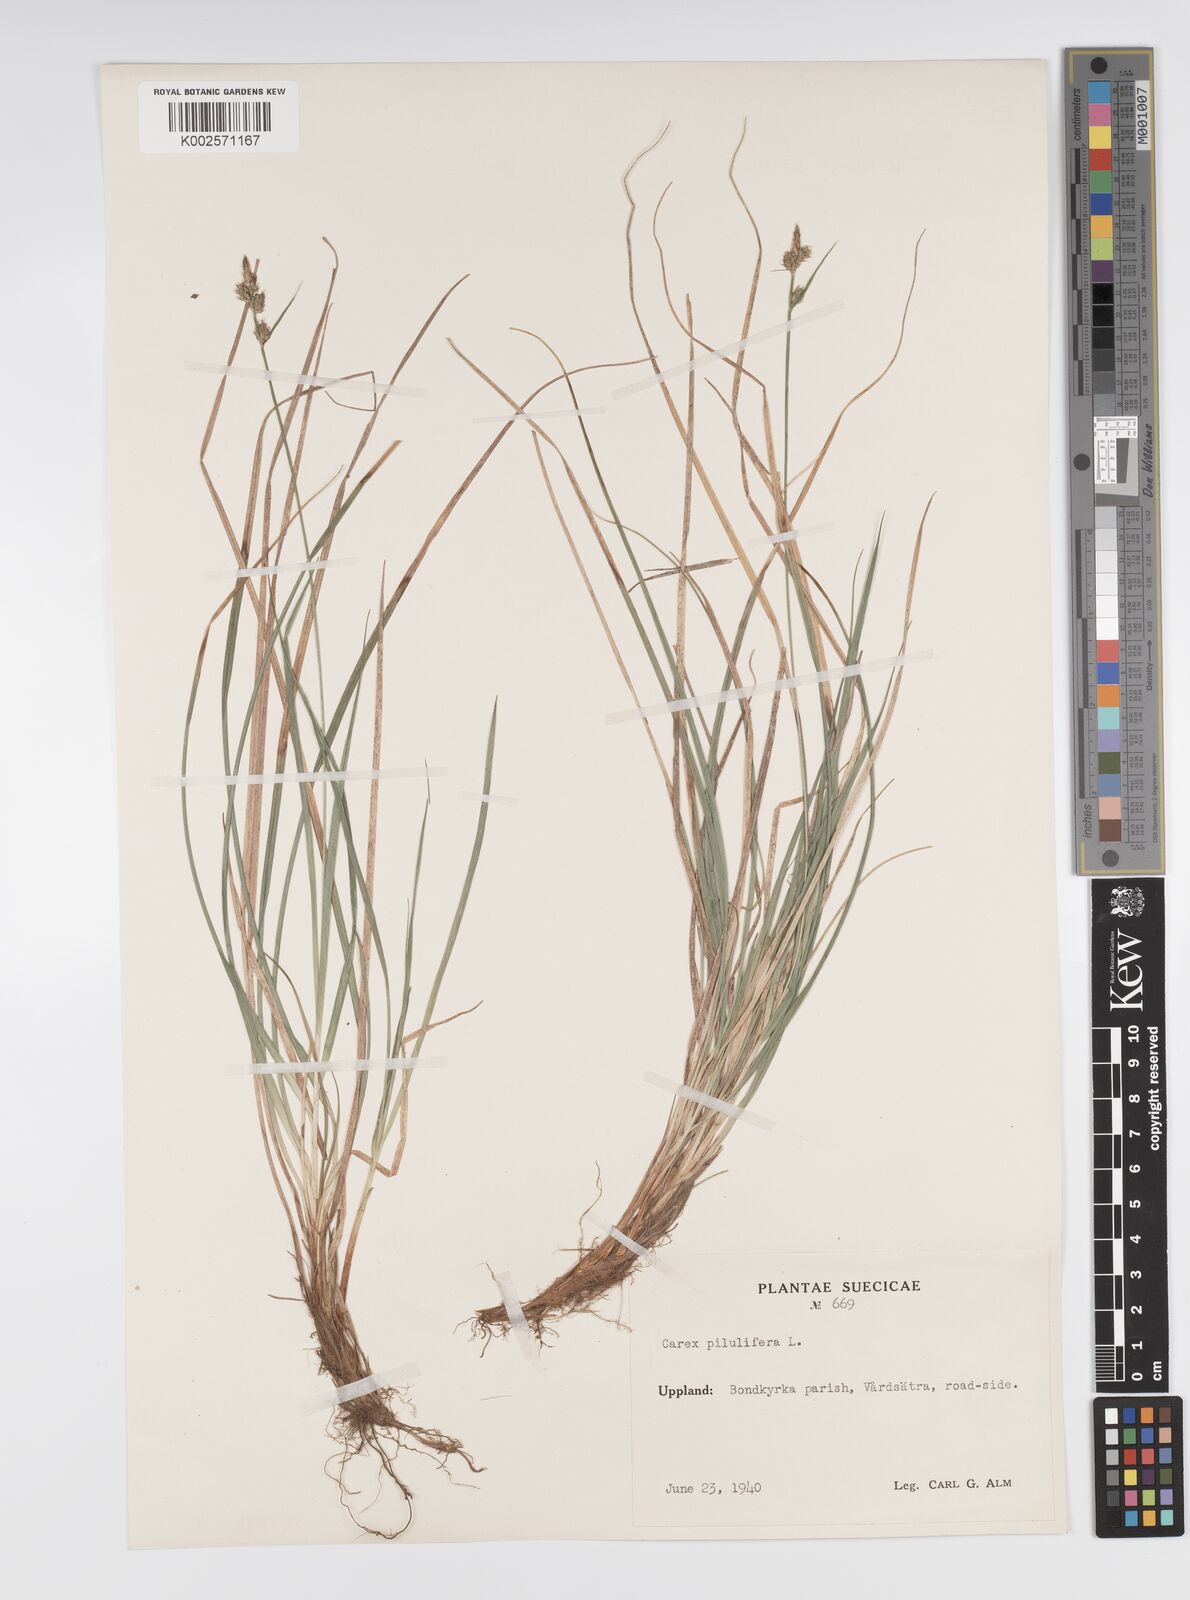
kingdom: Plantae
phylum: Tracheophyta
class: Liliopsida
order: Poales
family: Cyperaceae
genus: Carex
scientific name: Carex pilulifera
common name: Pill sedge
